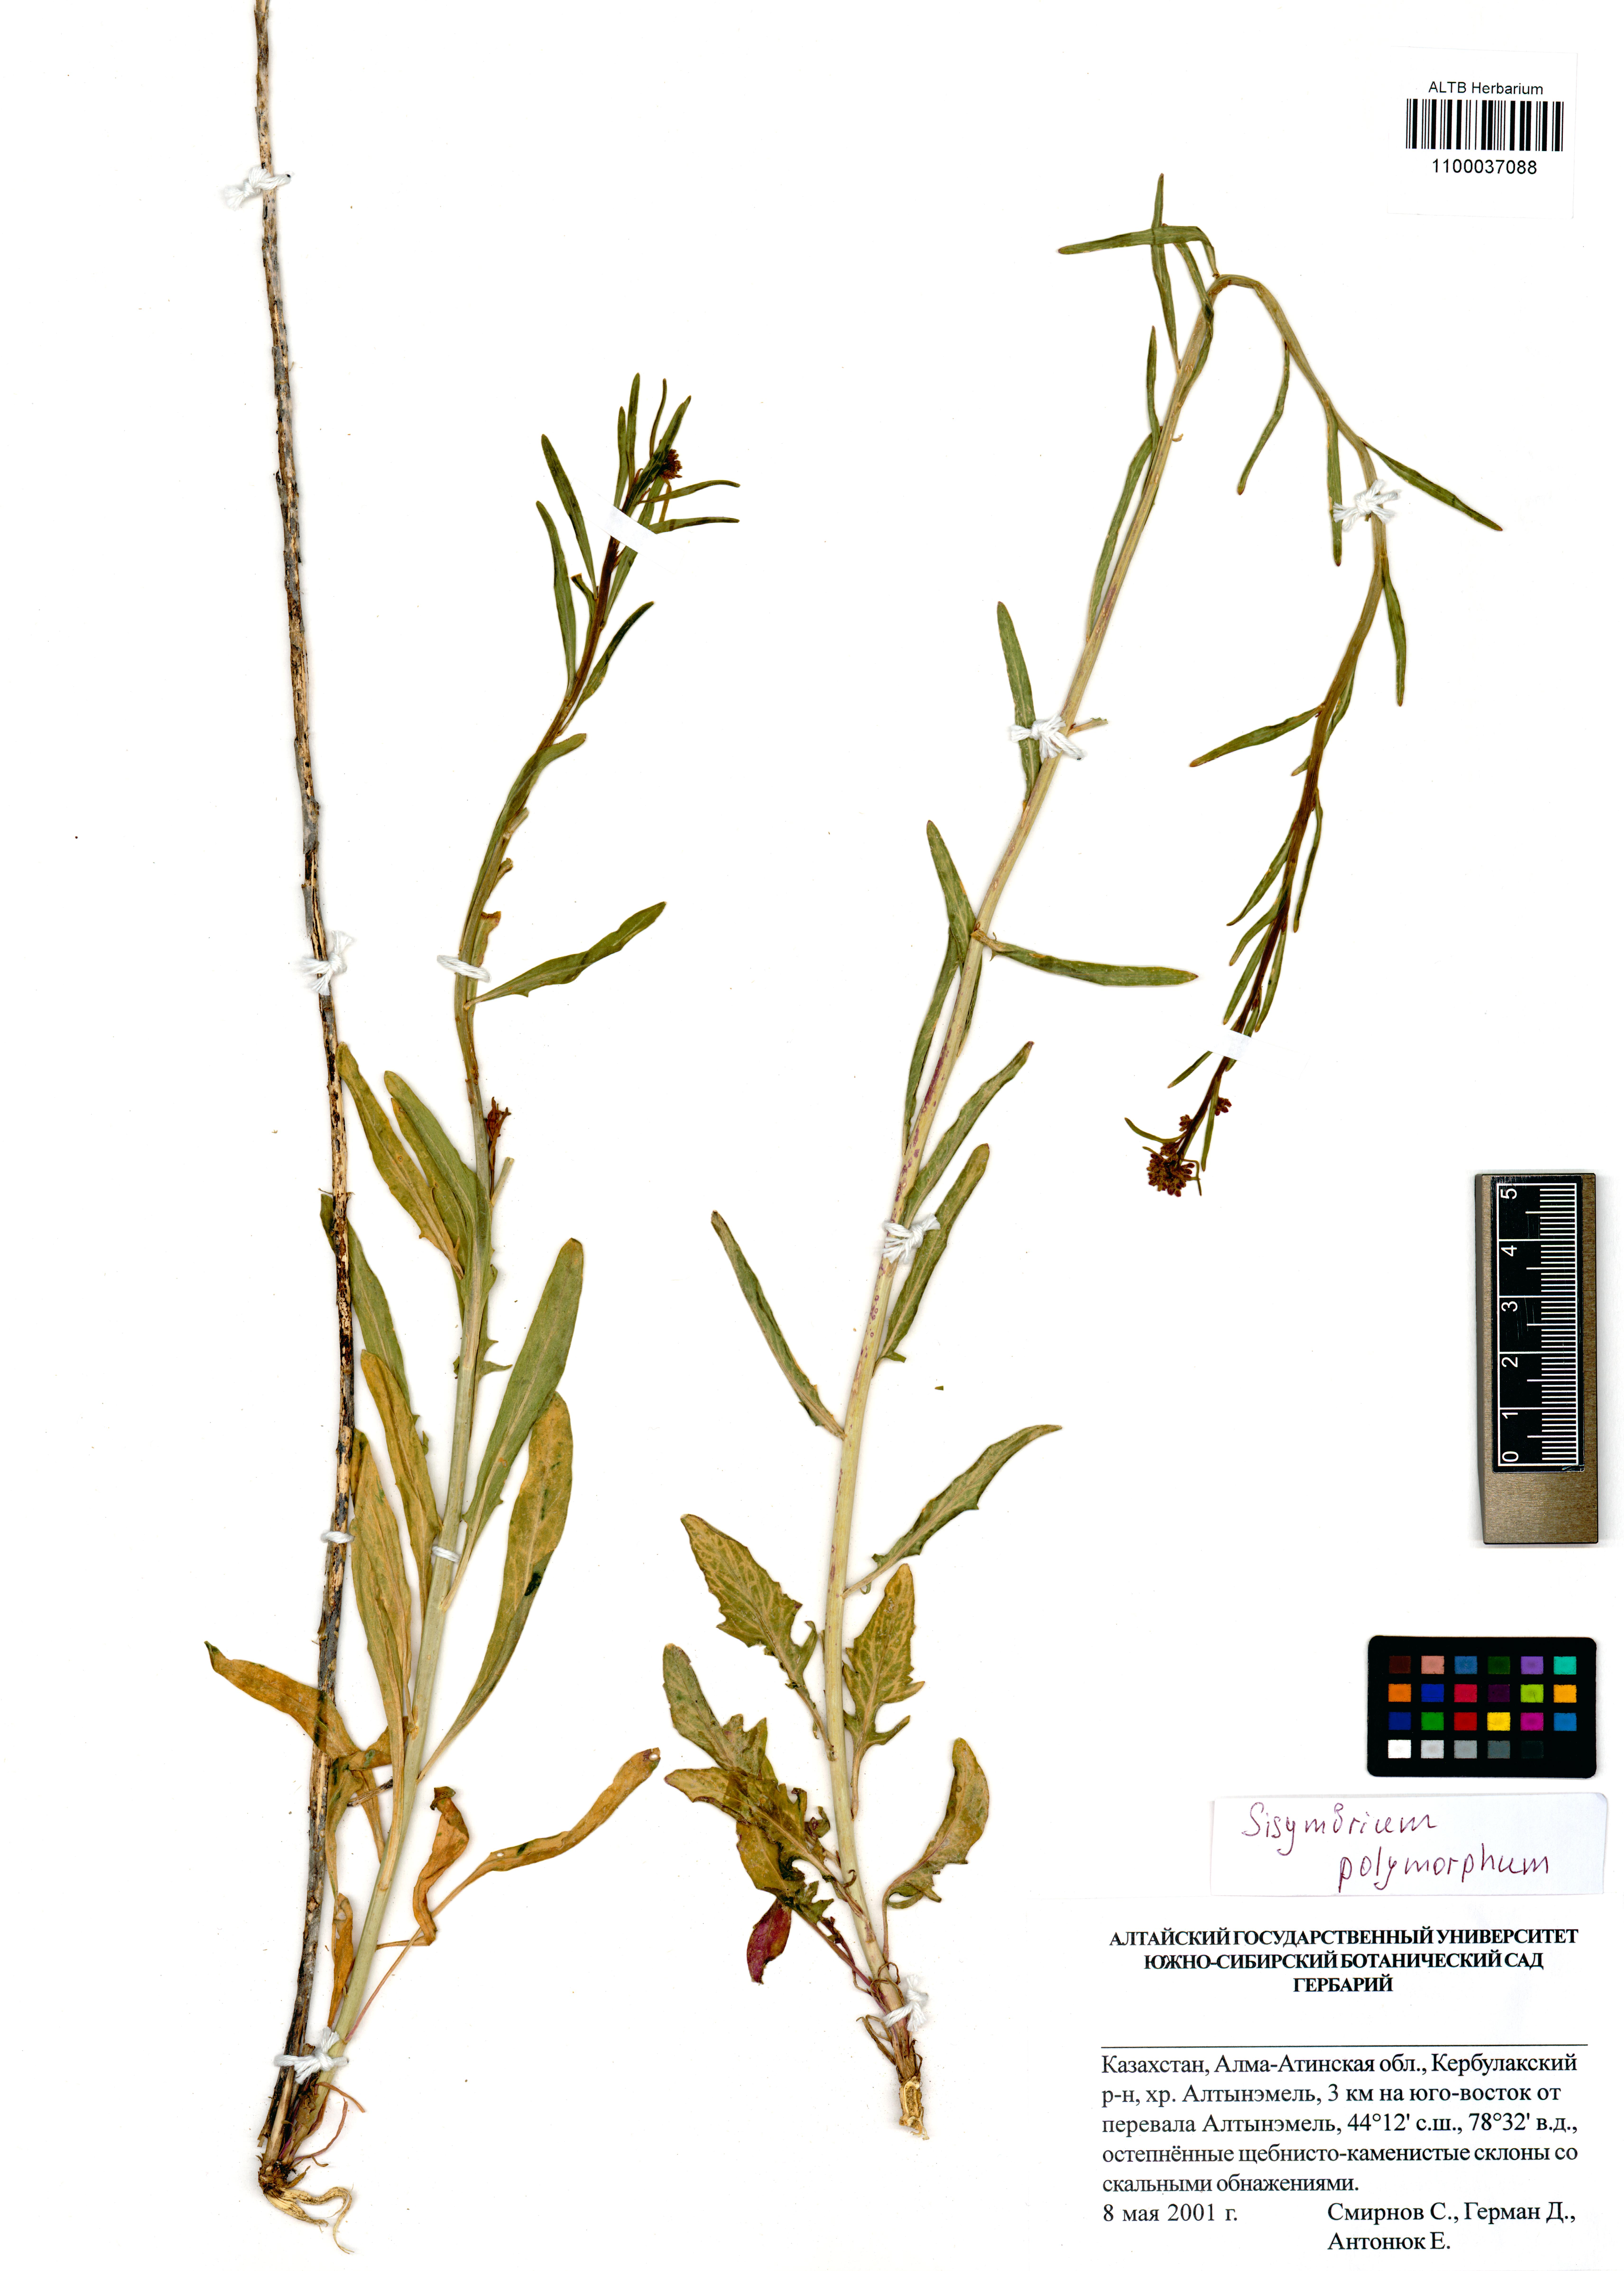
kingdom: Plantae
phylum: Tracheophyta
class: Magnoliopsida
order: Brassicales
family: Brassicaceae
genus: Sisymbrium
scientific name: Sisymbrium polymorphum
